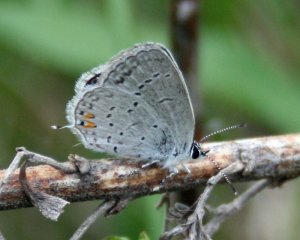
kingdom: Animalia
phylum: Arthropoda
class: Insecta
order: Lepidoptera
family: Lycaenidae
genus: Elkalyce
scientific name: Elkalyce comyntas
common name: Eastern Tailed-Blue
